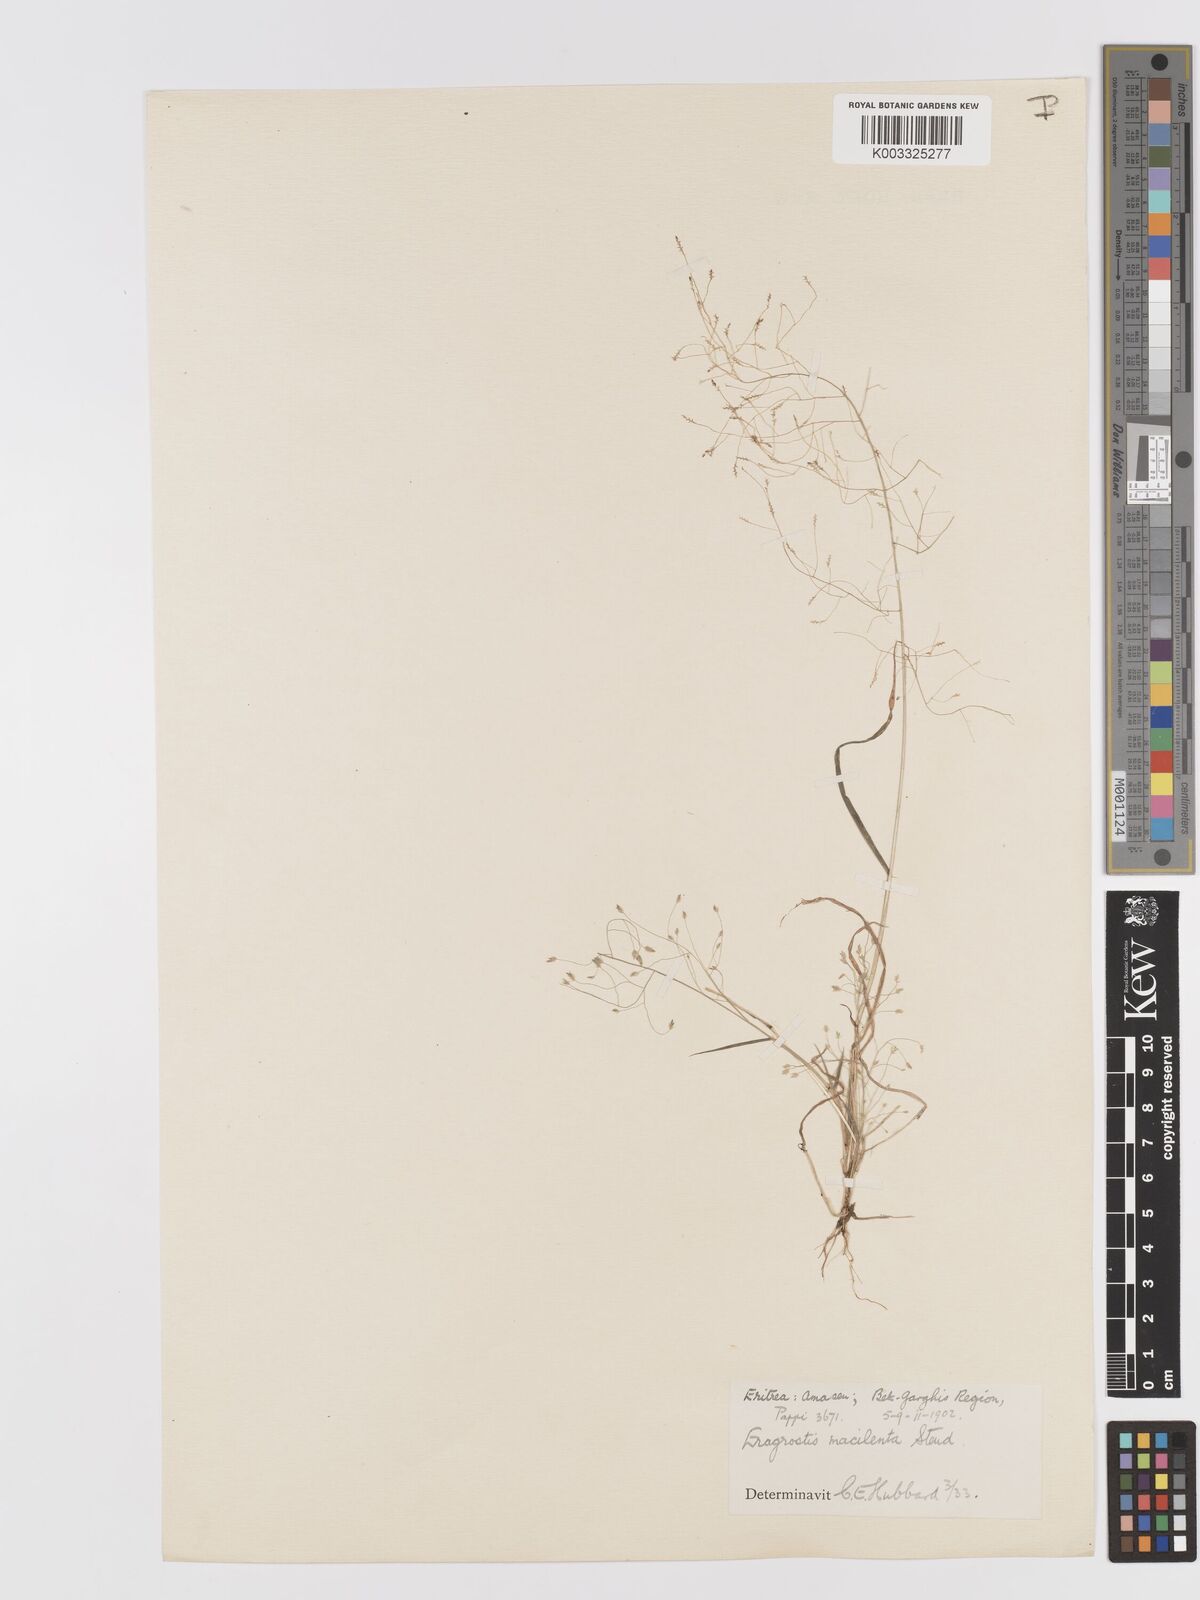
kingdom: Plantae
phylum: Tracheophyta
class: Liliopsida
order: Poales
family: Poaceae
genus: Eragrostis
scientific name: Eragrostis macilenta
